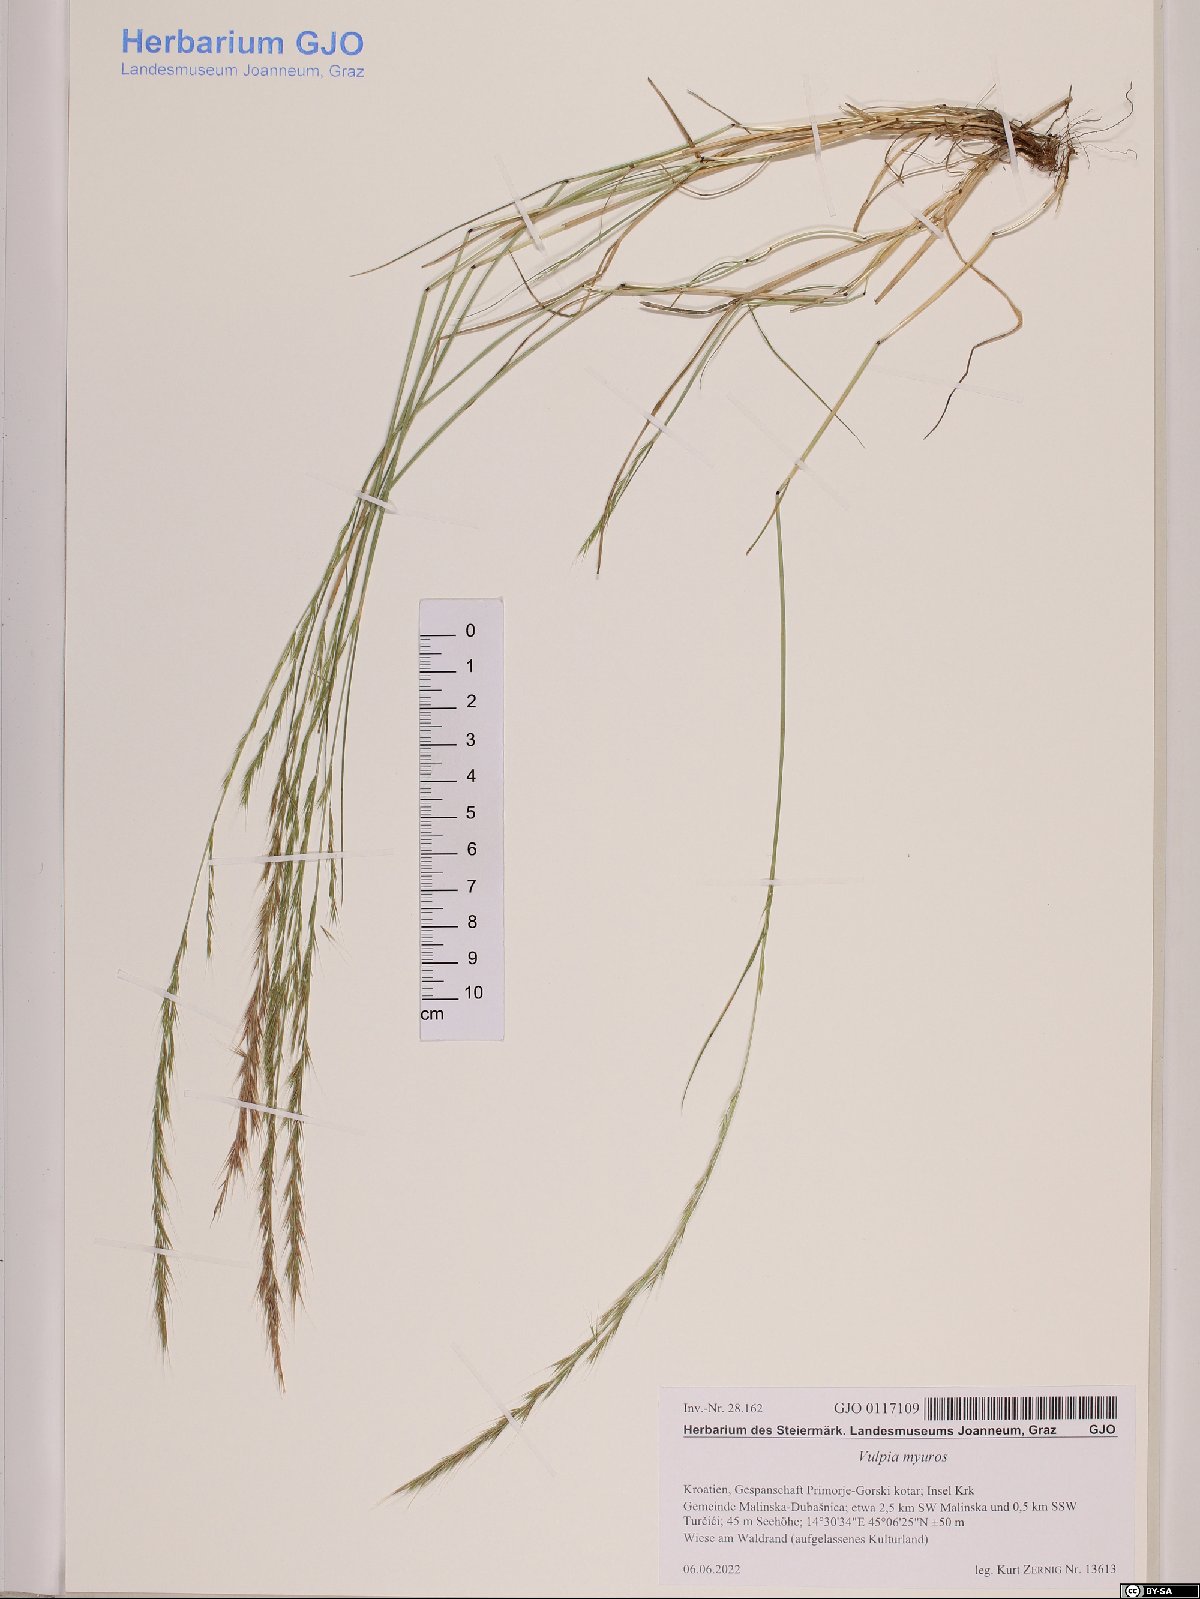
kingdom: Plantae
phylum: Tracheophyta
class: Liliopsida
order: Poales
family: Poaceae
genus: Festuca
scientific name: Festuca myuros
